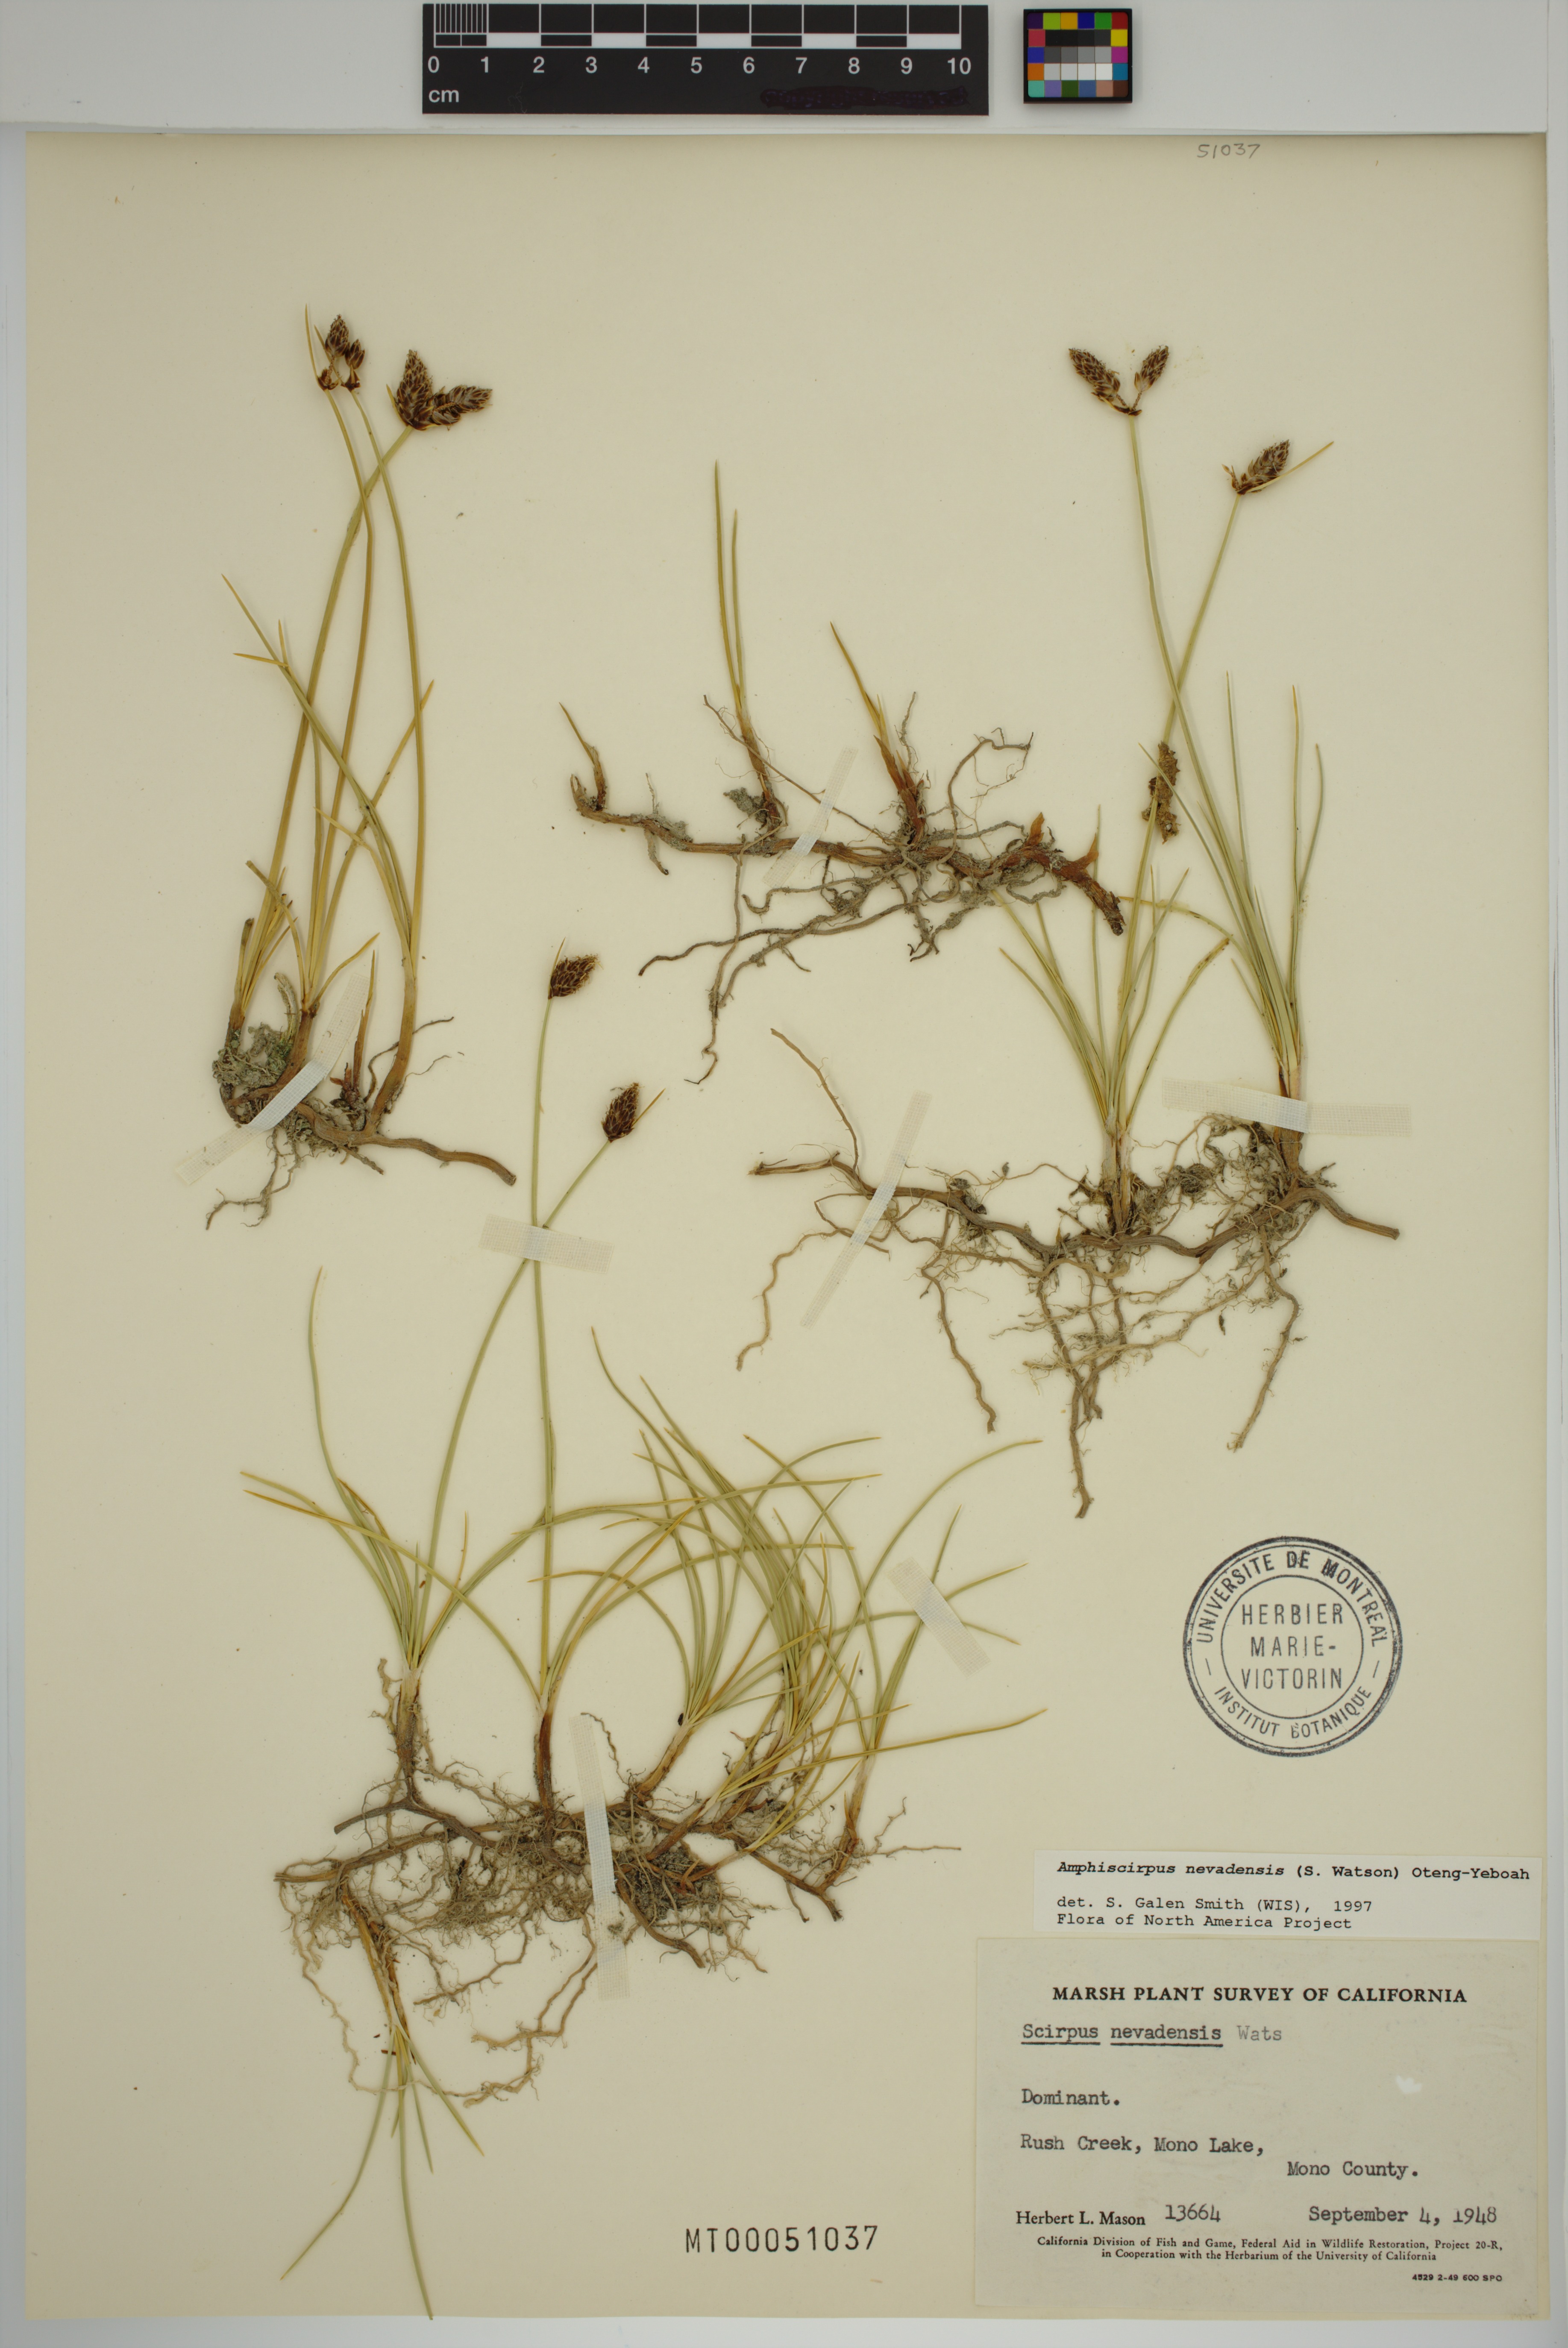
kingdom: Plantae
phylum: Tracheophyta
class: Liliopsida
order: Poales
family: Cyperaceae
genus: Amphiscirpus
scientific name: Amphiscirpus nevadensis
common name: Nevada bulrush
